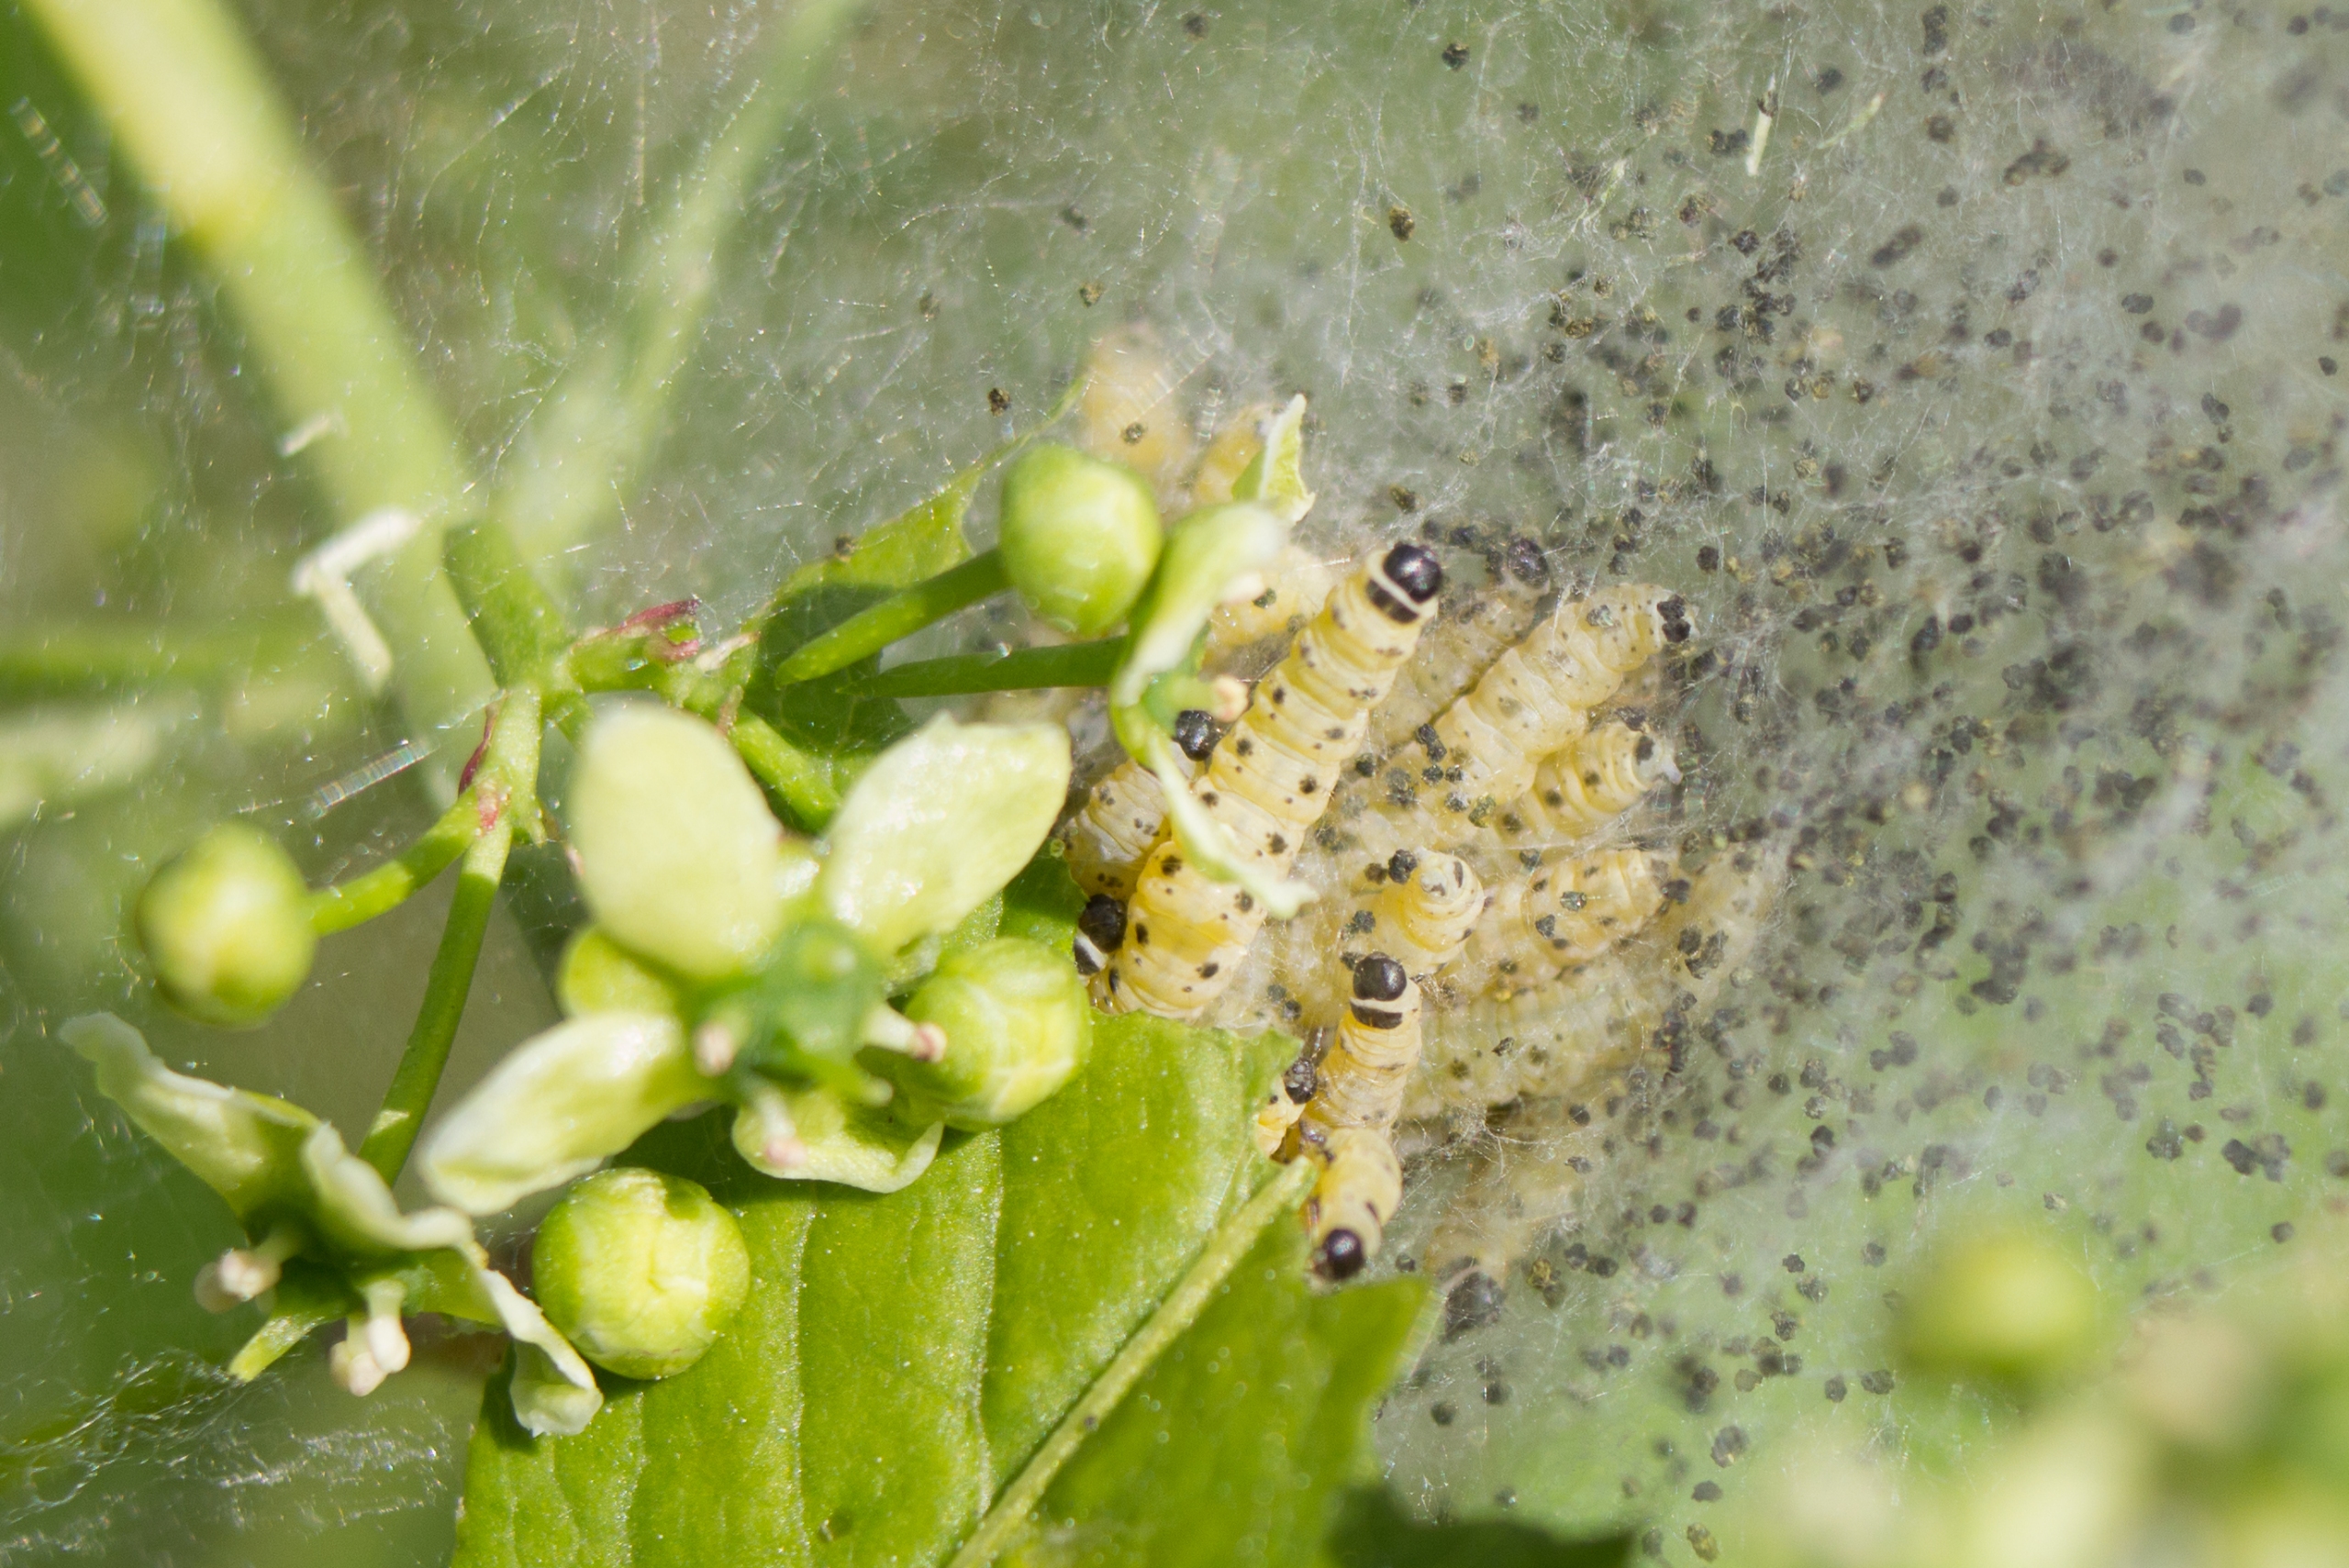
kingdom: Animalia
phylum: Arthropoda
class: Insecta
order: Lepidoptera
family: Yponomeutidae
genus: Yponomeuta
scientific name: Yponomeuta cagnagellus
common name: Benvedspindemøl
